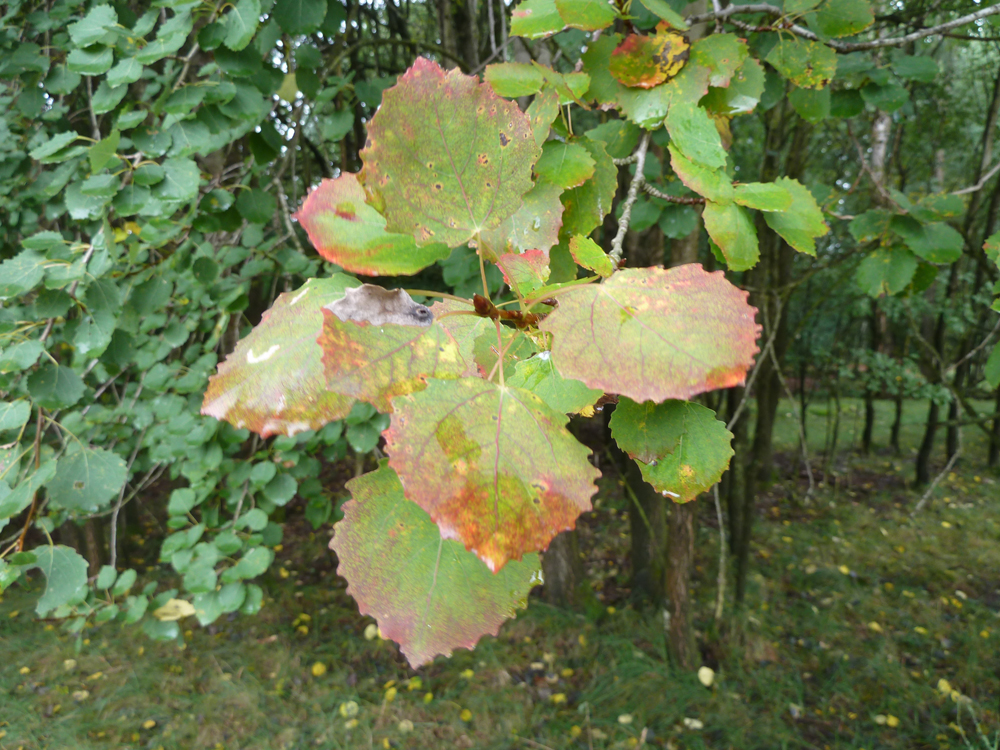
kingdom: Plantae
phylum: Tracheophyta
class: Magnoliopsida
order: Malpighiales
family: Salicaceae
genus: Populus
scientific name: Populus tremula
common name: European aspen
